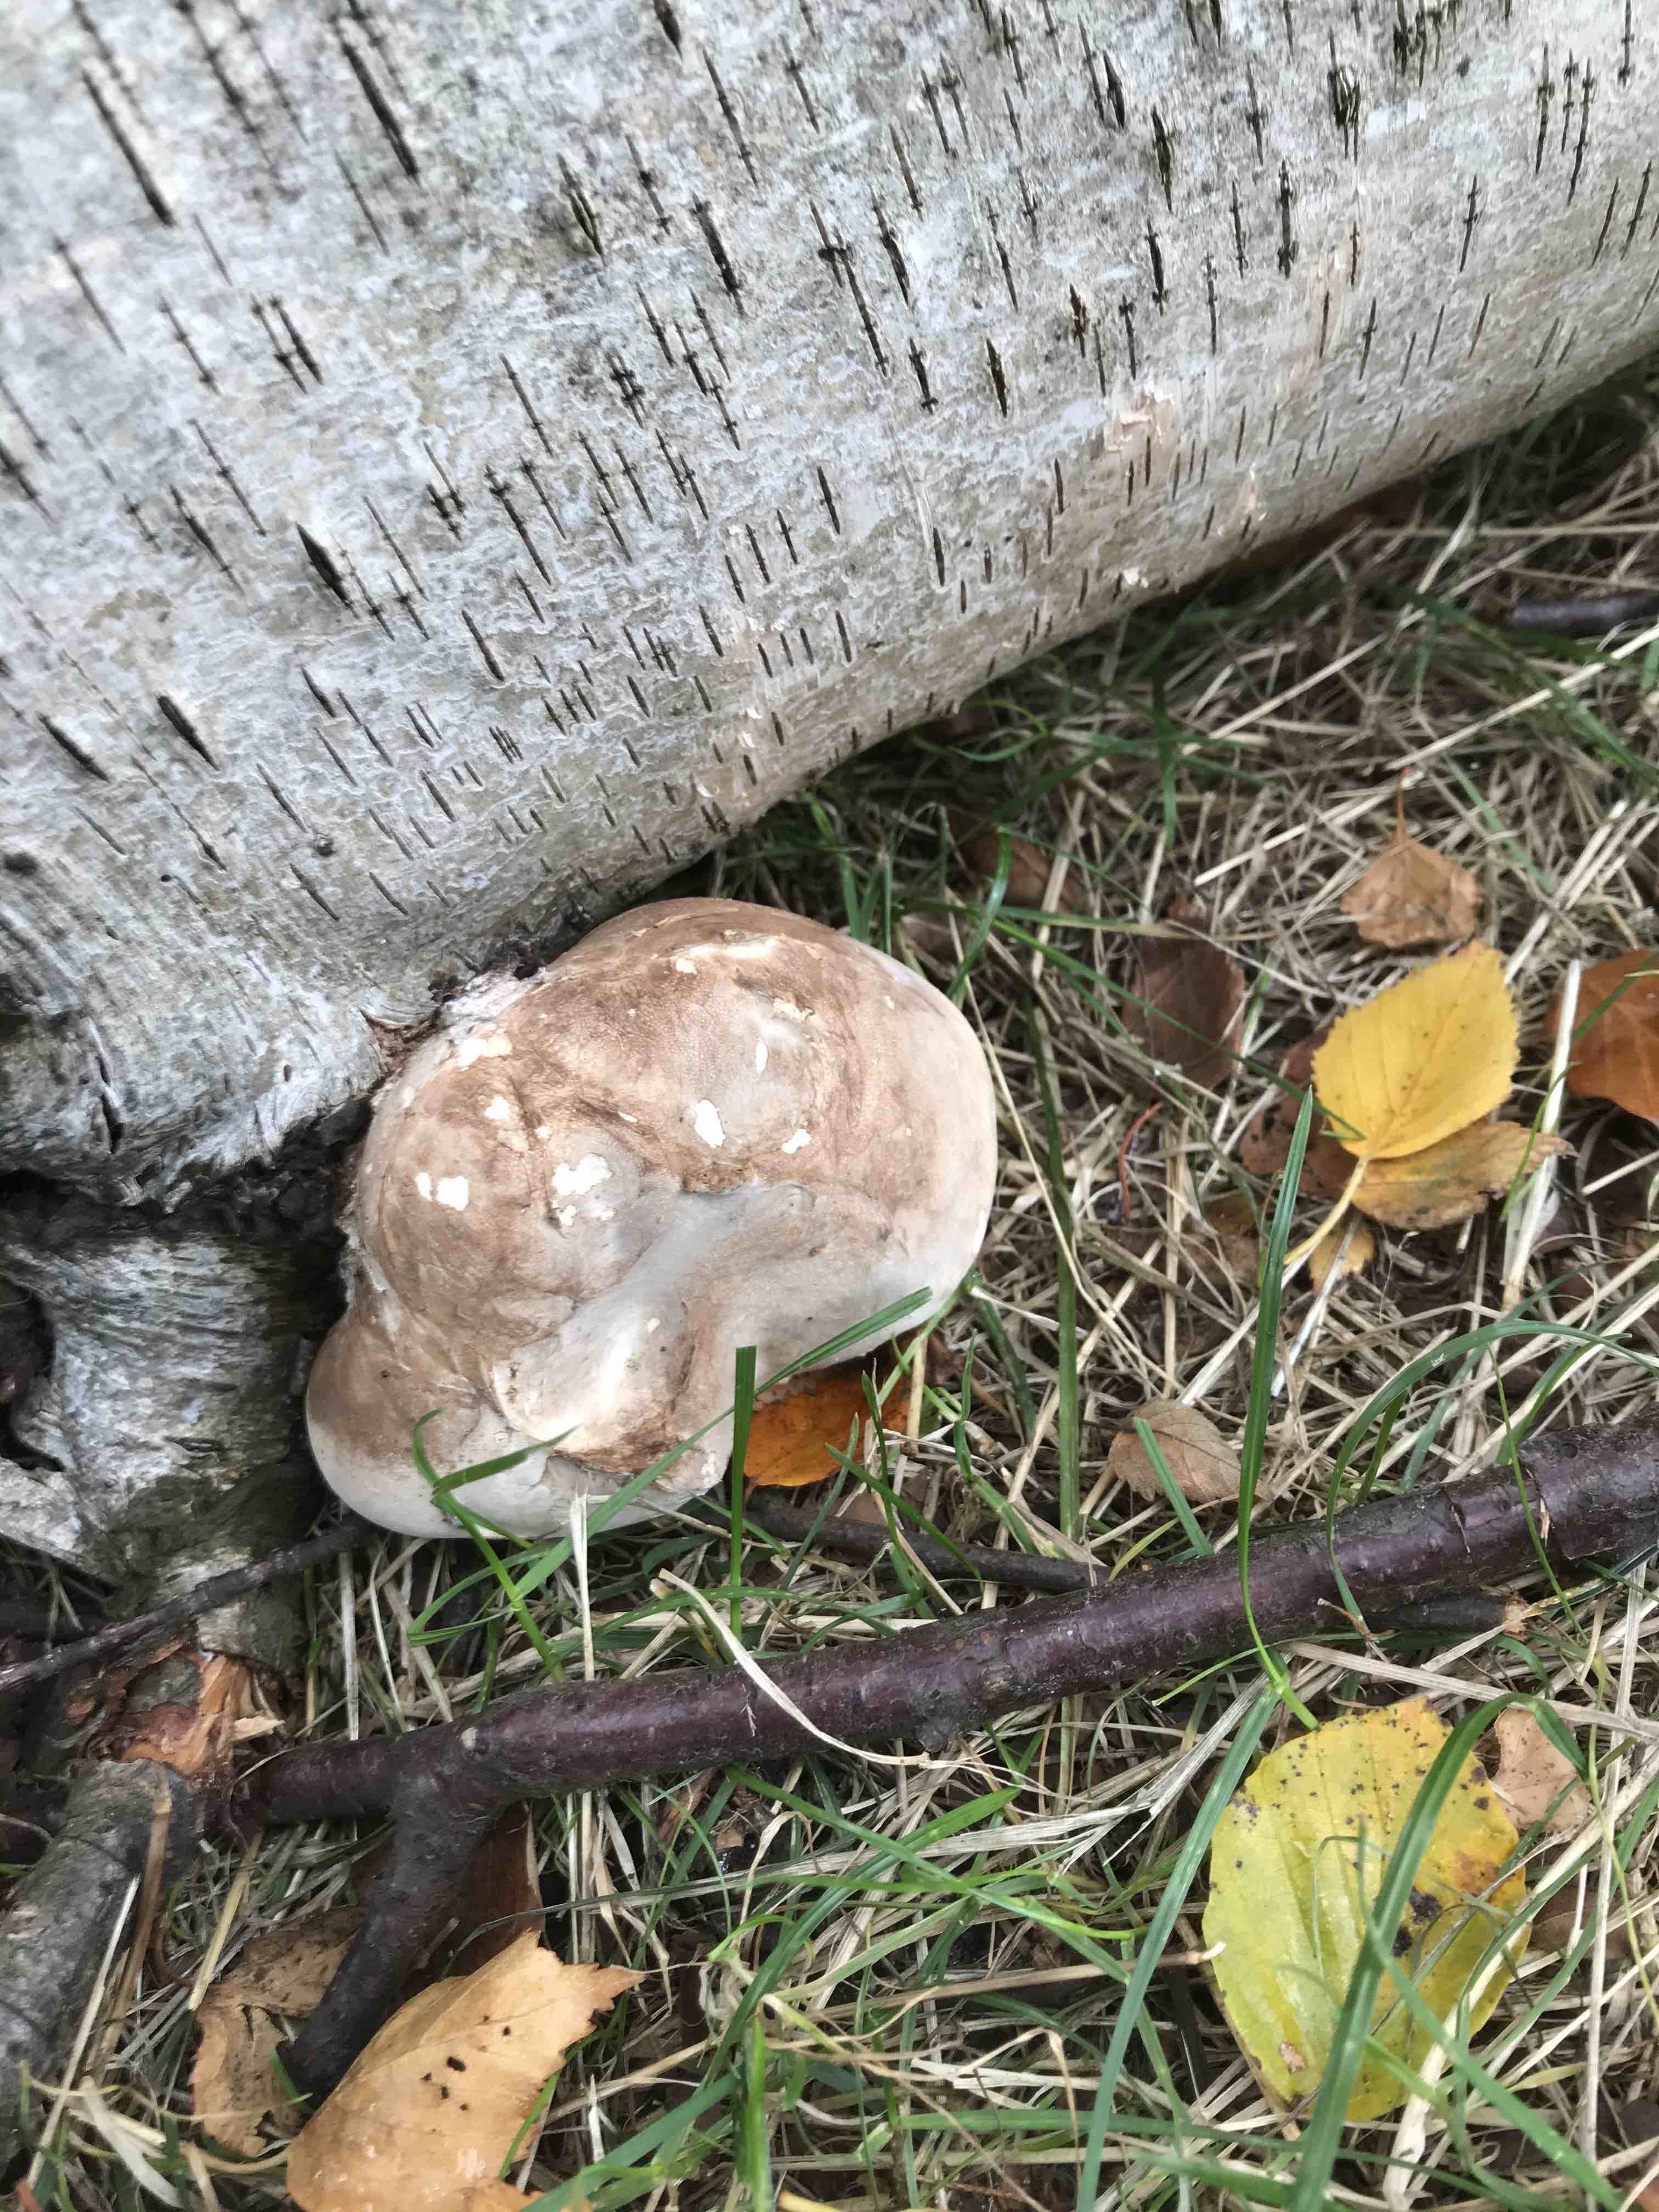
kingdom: Fungi
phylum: Basidiomycota
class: Agaricomycetes
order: Polyporales
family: Fomitopsidaceae
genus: Fomitopsis
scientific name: Fomitopsis betulina
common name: birkeporesvamp
